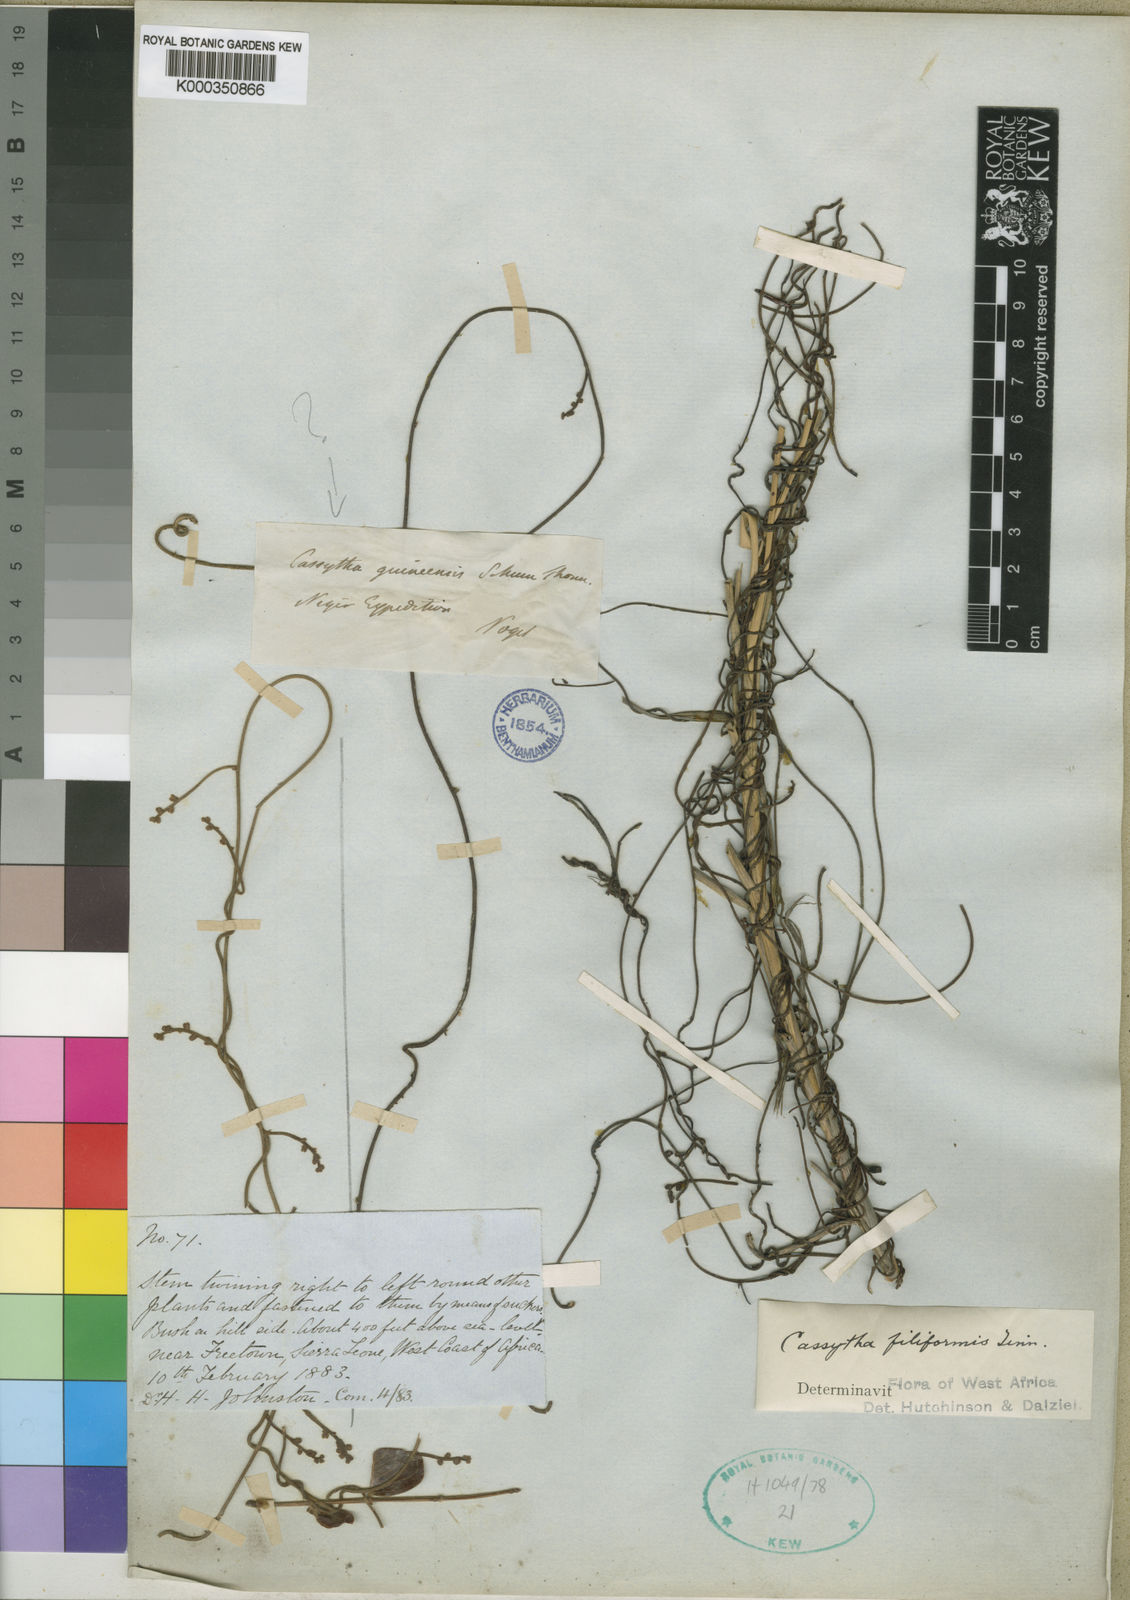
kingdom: Plantae
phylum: Tracheophyta
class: Magnoliopsida
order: Laurales
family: Lauraceae
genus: Cassytha
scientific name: Cassytha filiformis
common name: Dodder-laurel
